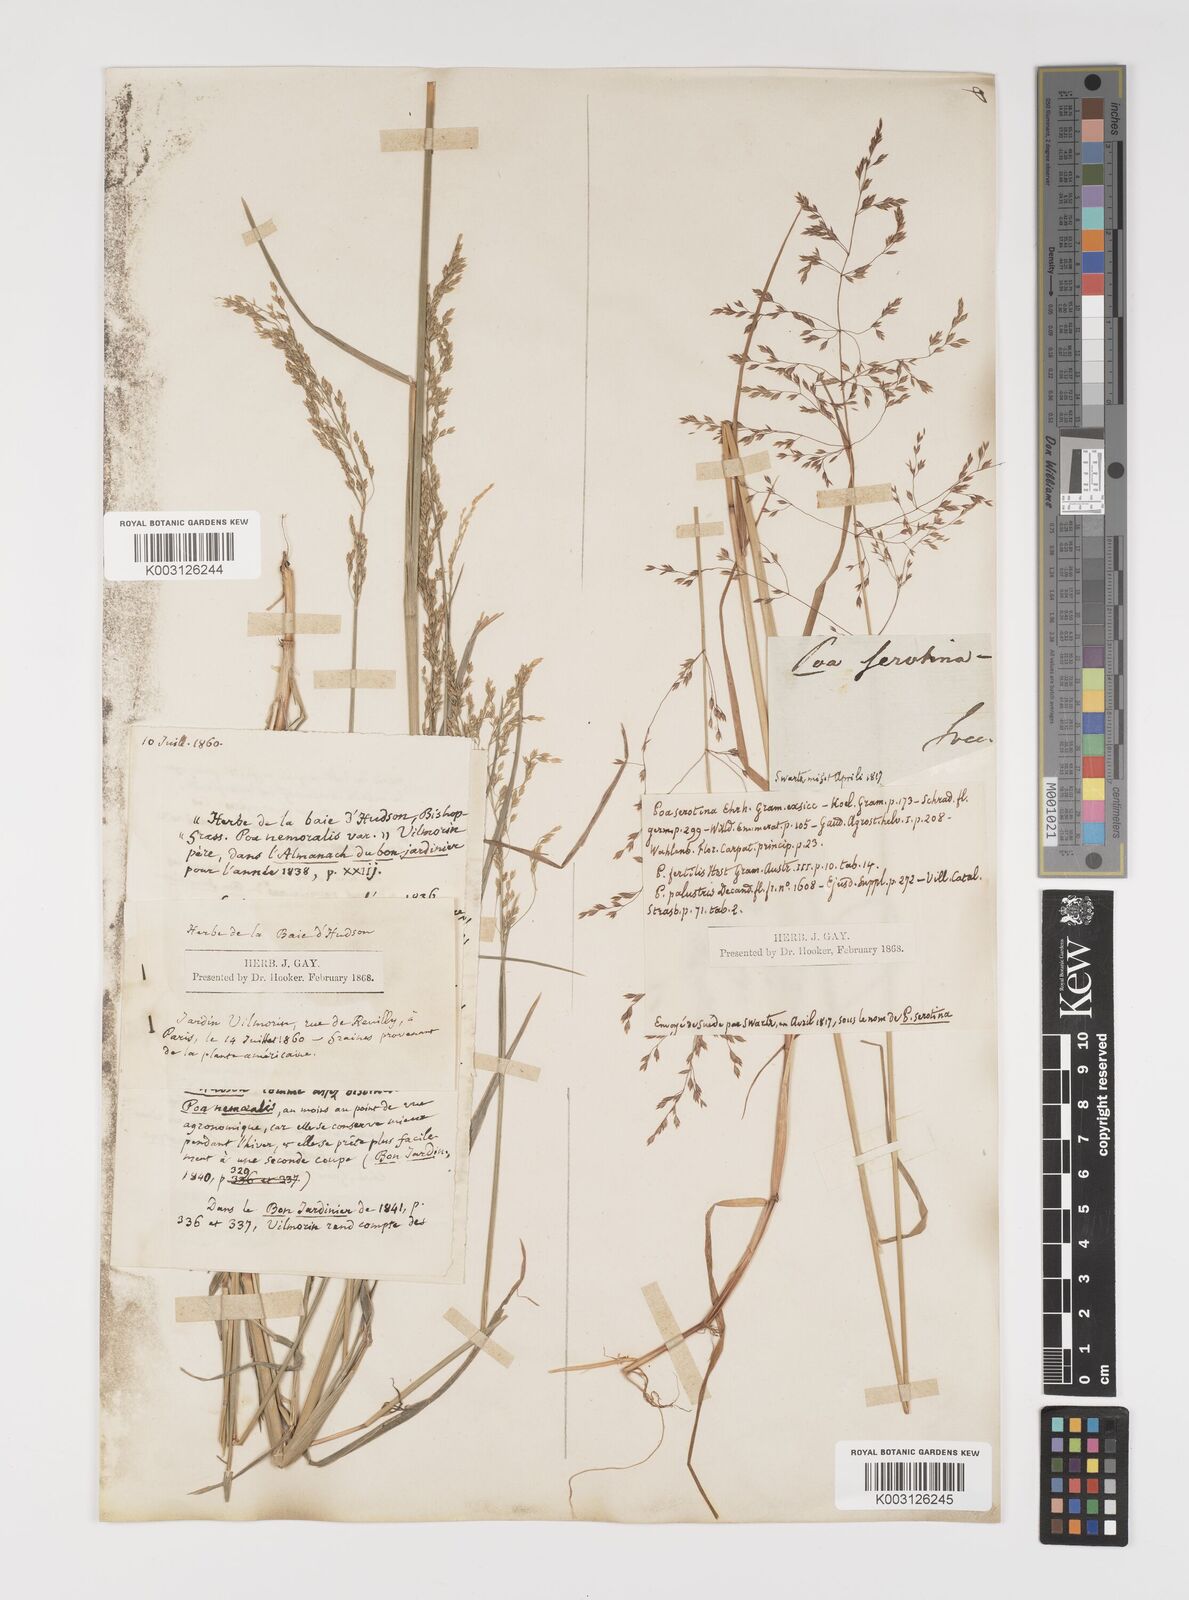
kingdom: Plantae
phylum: Tracheophyta
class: Liliopsida
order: Poales
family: Poaceae
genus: Poa
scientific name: Poa palustris
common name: Swamp meadow-grass
